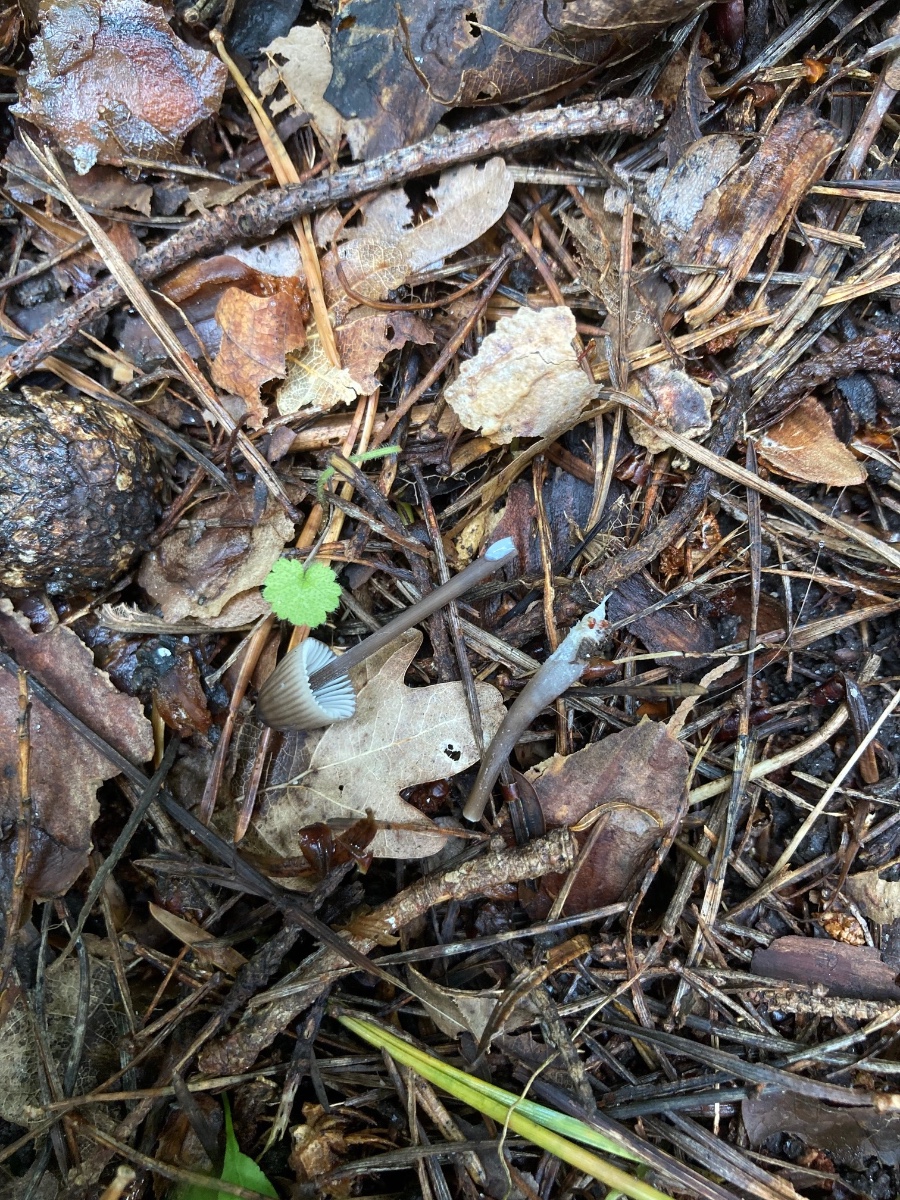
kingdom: Fungi
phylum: Basidiomycota
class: Agaricomycetes
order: Agaricales
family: Mycenaceae
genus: Mycena
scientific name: Mycena galopus
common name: hvidmælket huesvamp
